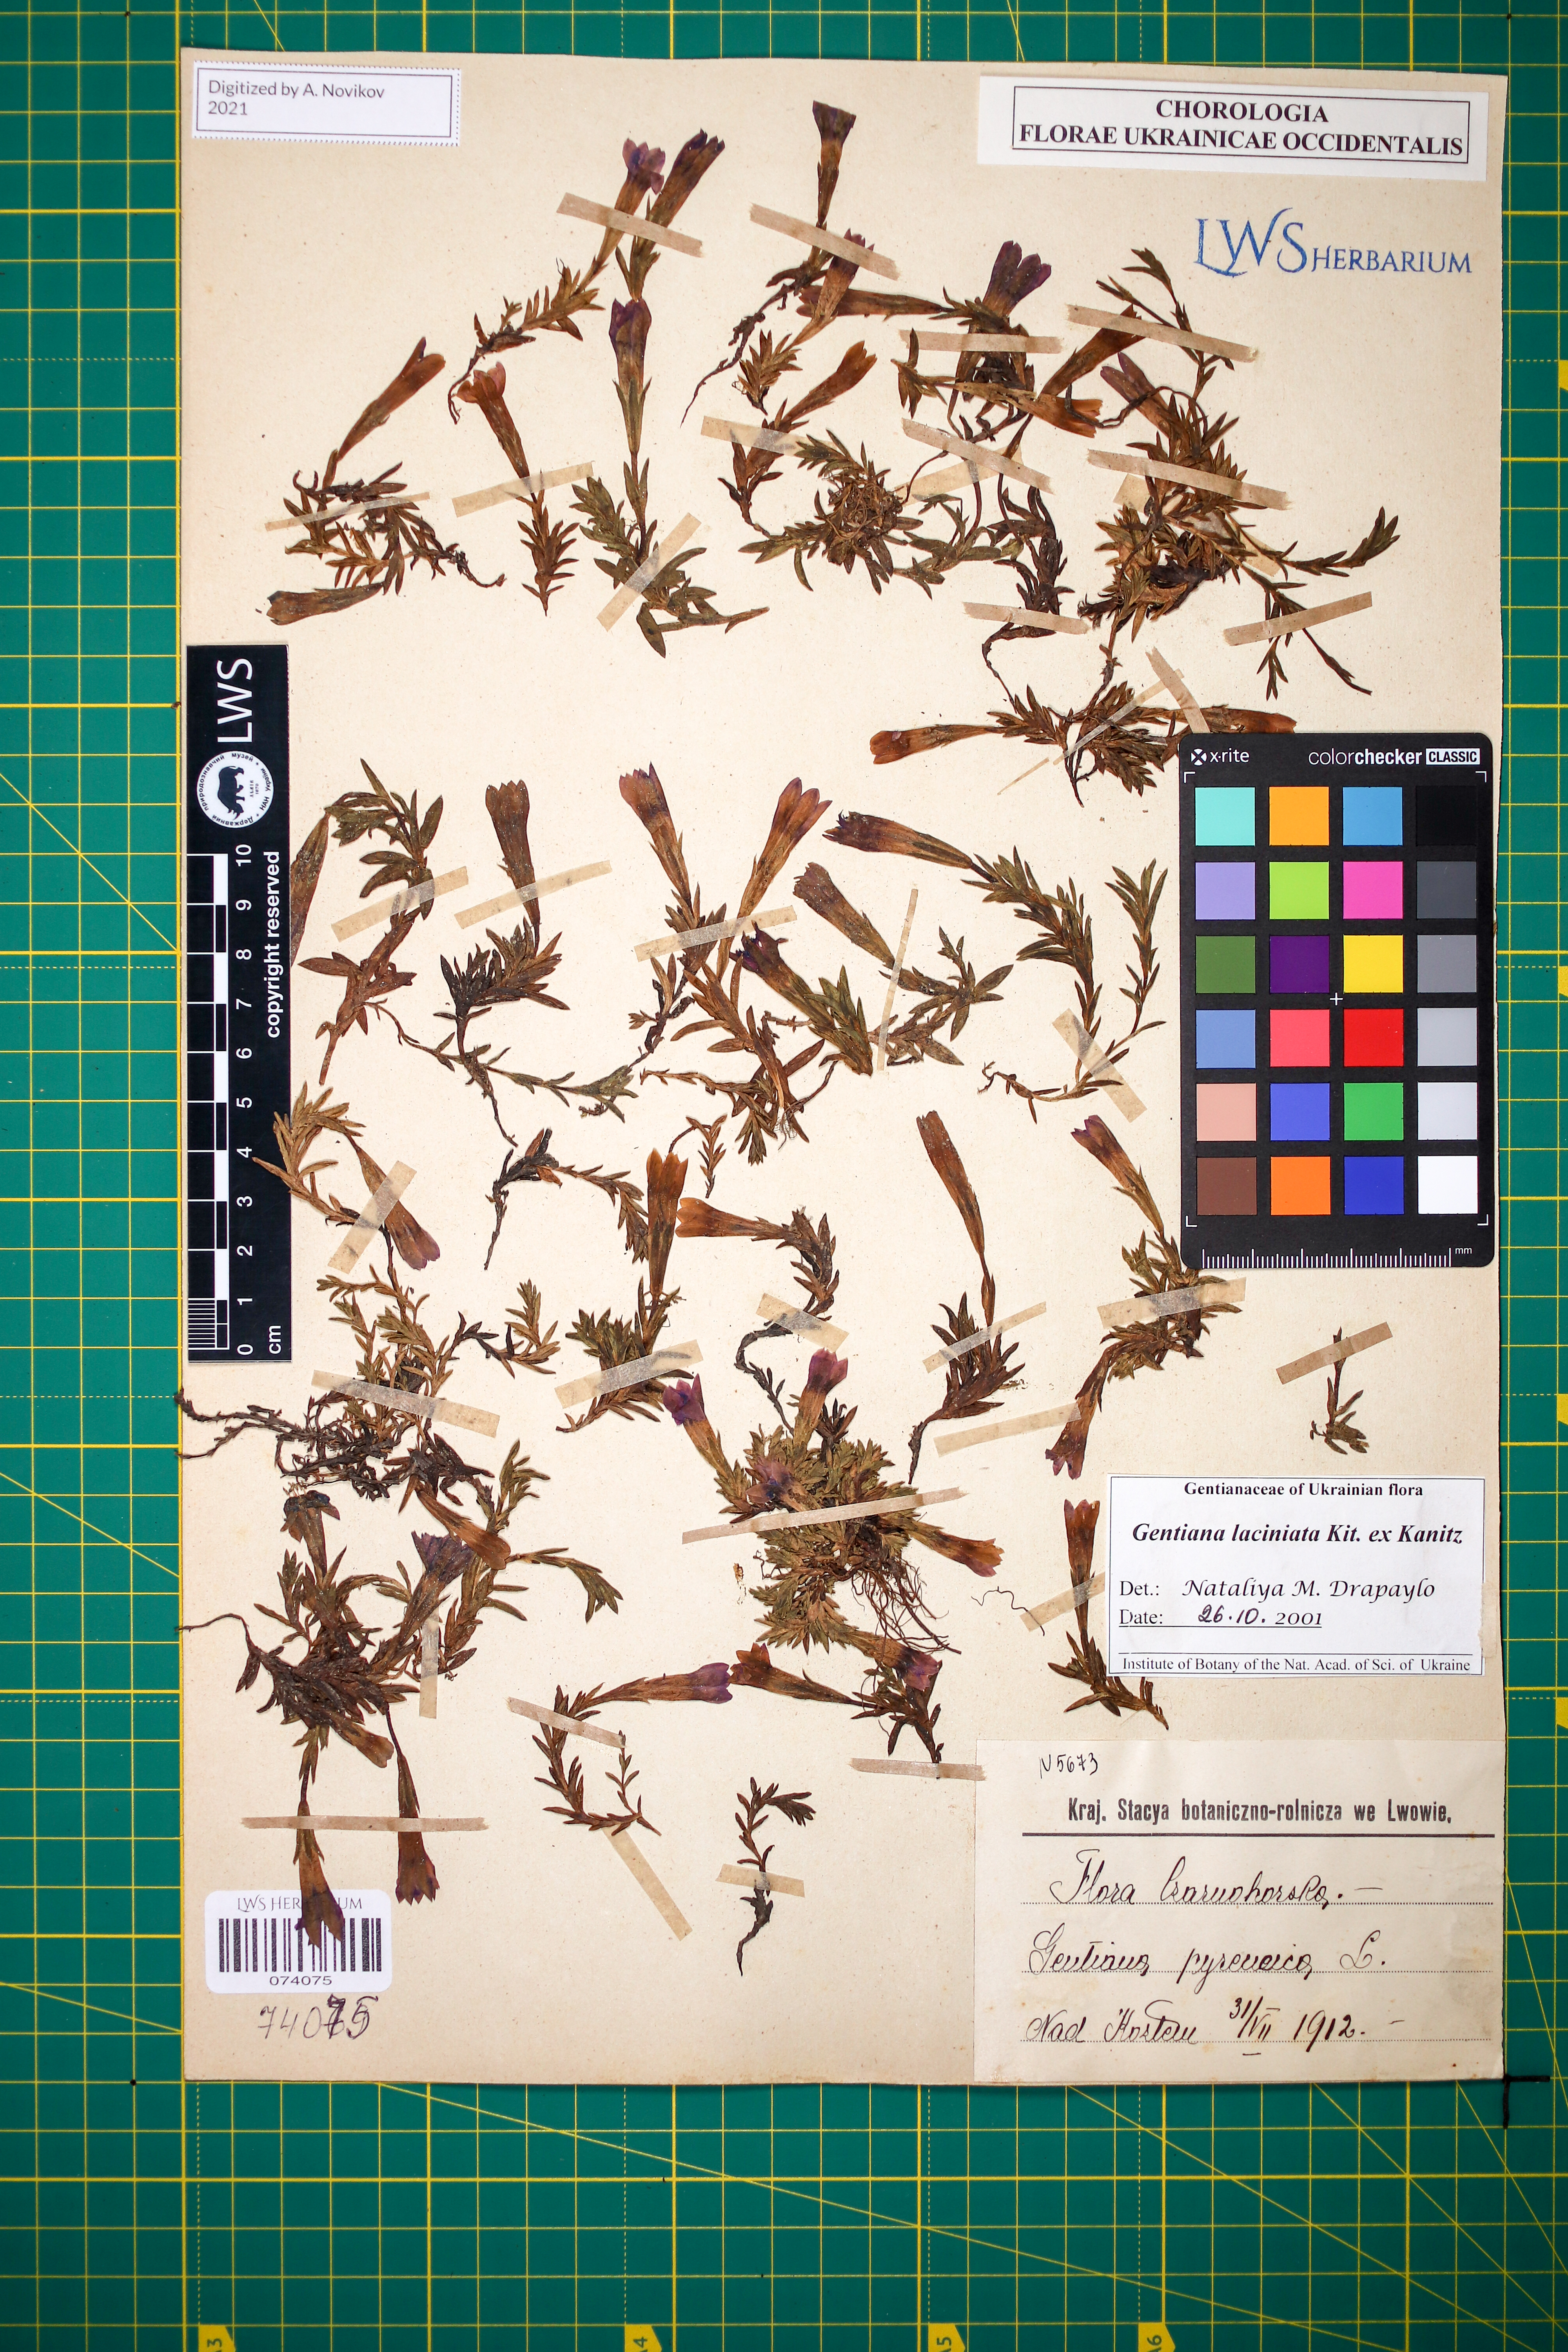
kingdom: Plantae
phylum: Tracheophyta
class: Magnoliopsida
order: Gentianales
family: Gentianaceae
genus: Gentiana
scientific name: Gentiana laciniata
